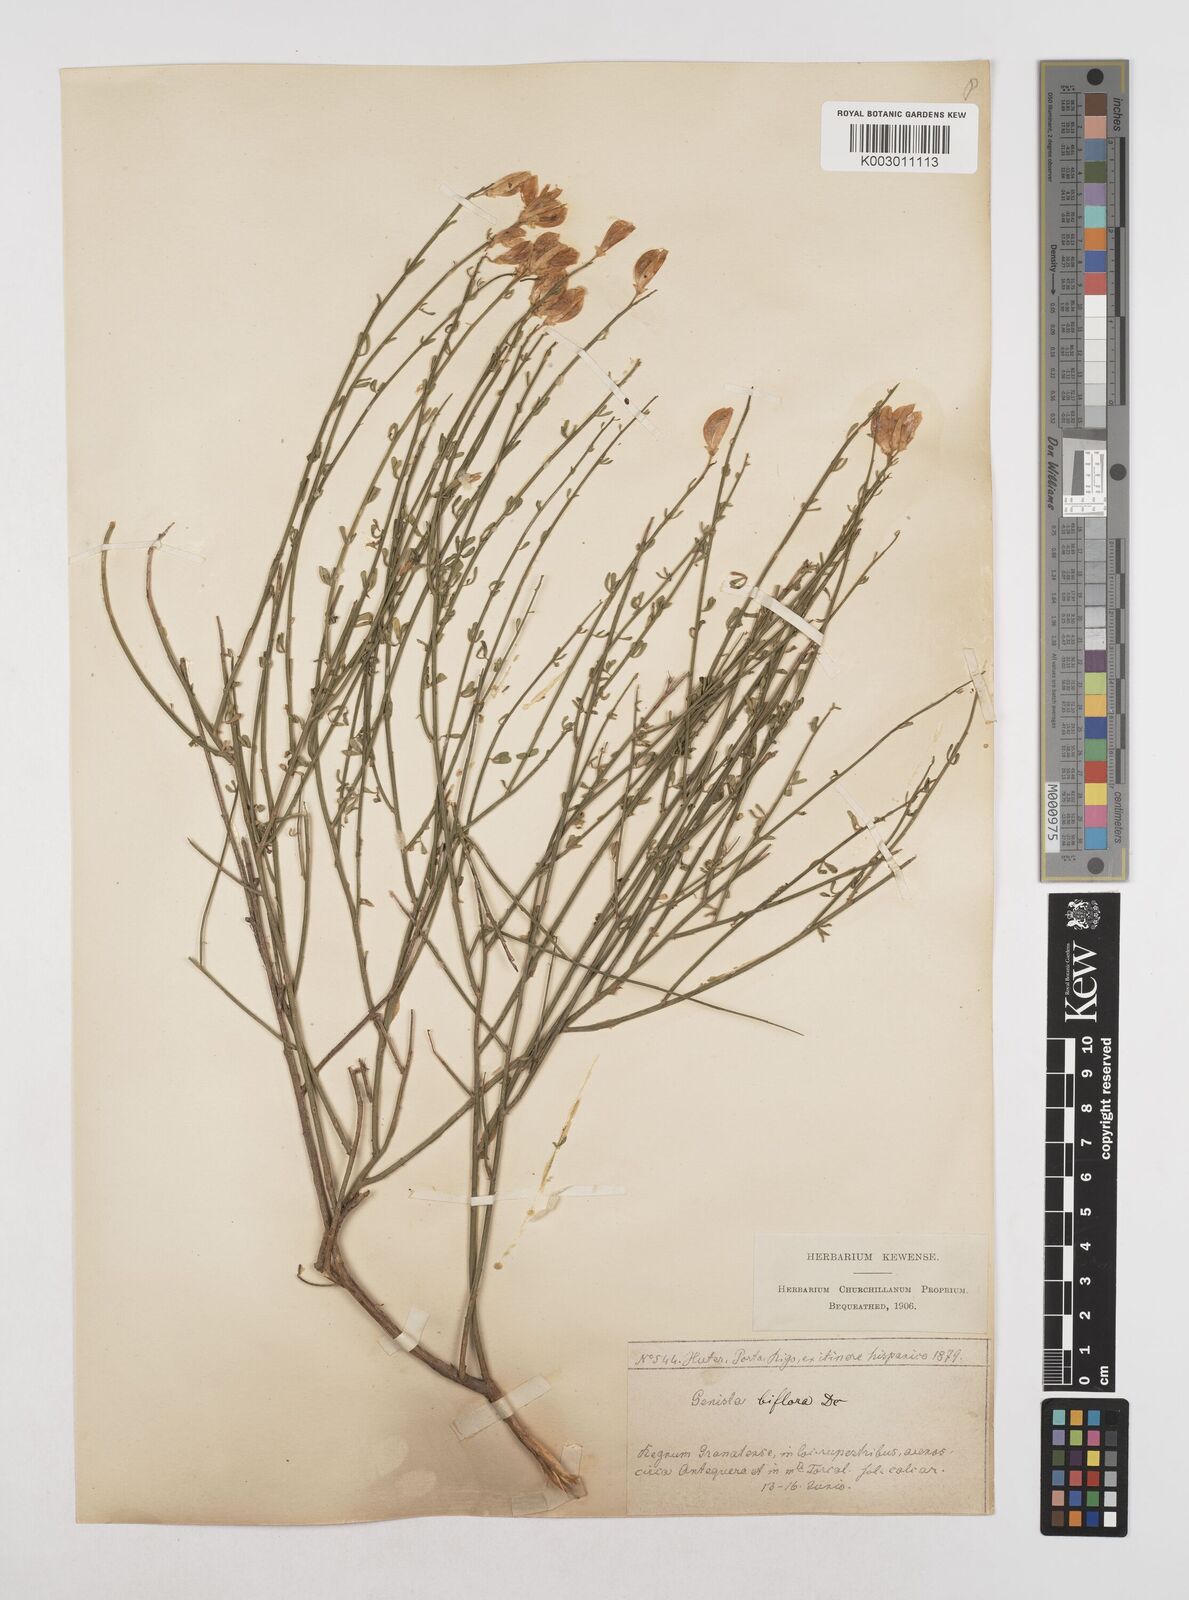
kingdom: Plantae
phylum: Tracheophyta
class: Magnoliopsida
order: Fabales
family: Fabaceae
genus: Cytisus
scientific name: Cytisus fontanesii
